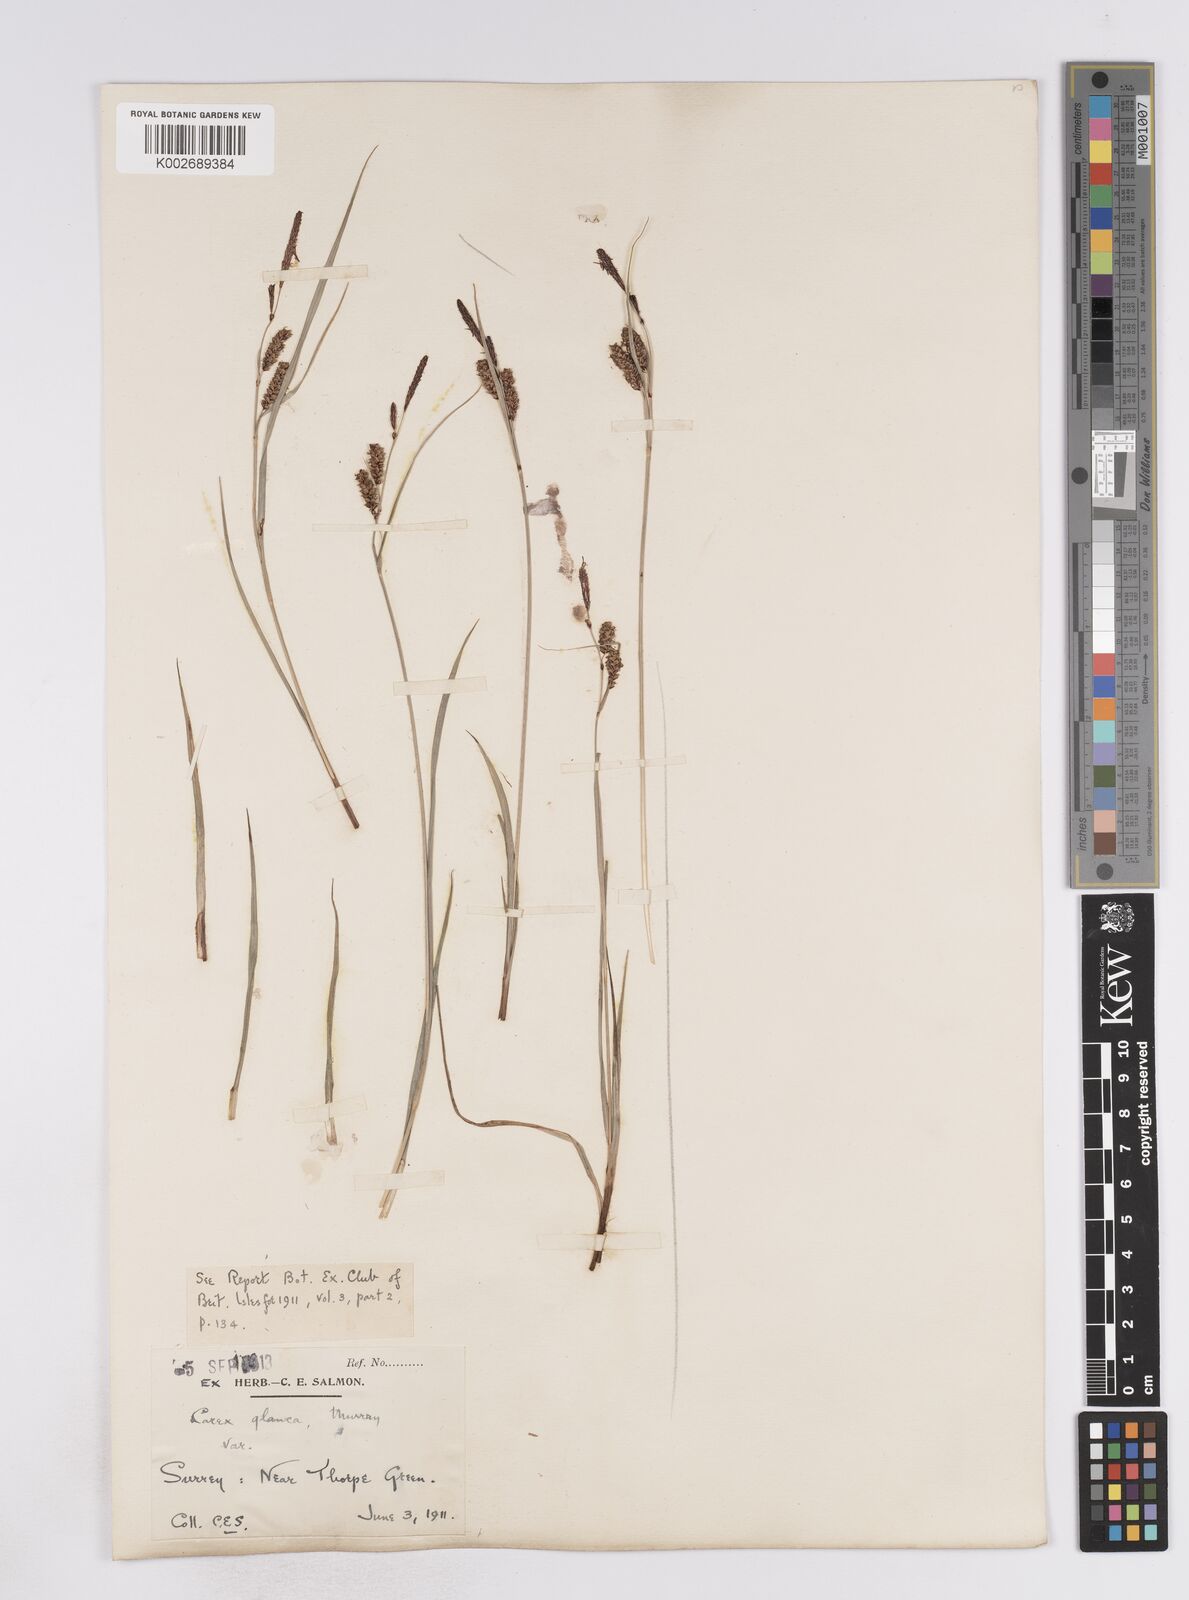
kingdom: Plantae
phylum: Tracheophyta
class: Liliopsida
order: Poales
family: Cyperaceae
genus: Carex
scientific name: Carex flacca
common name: Glaucous sedge
